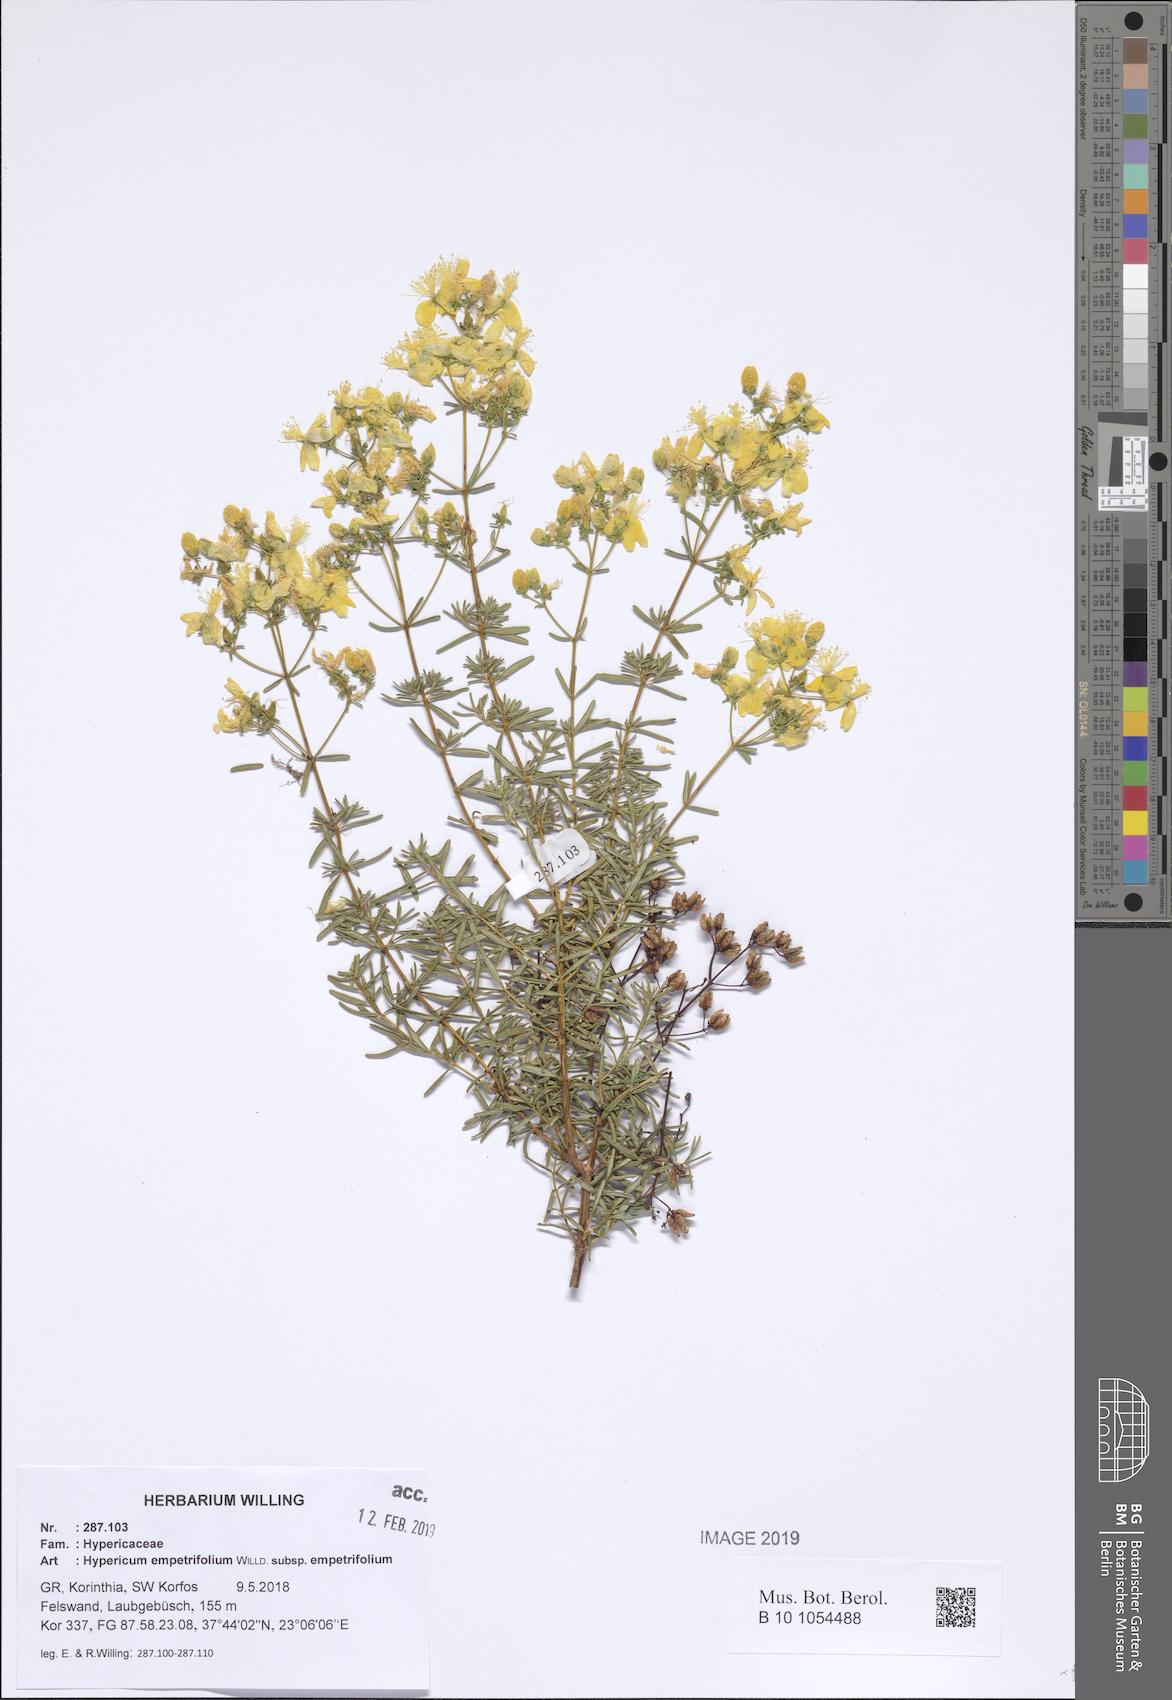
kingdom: Plantae
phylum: Tracheophyta
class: Magnoliopsida
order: Malpighiales
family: Hypericaceae
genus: Hypericum
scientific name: Hypericum empetrifolium
